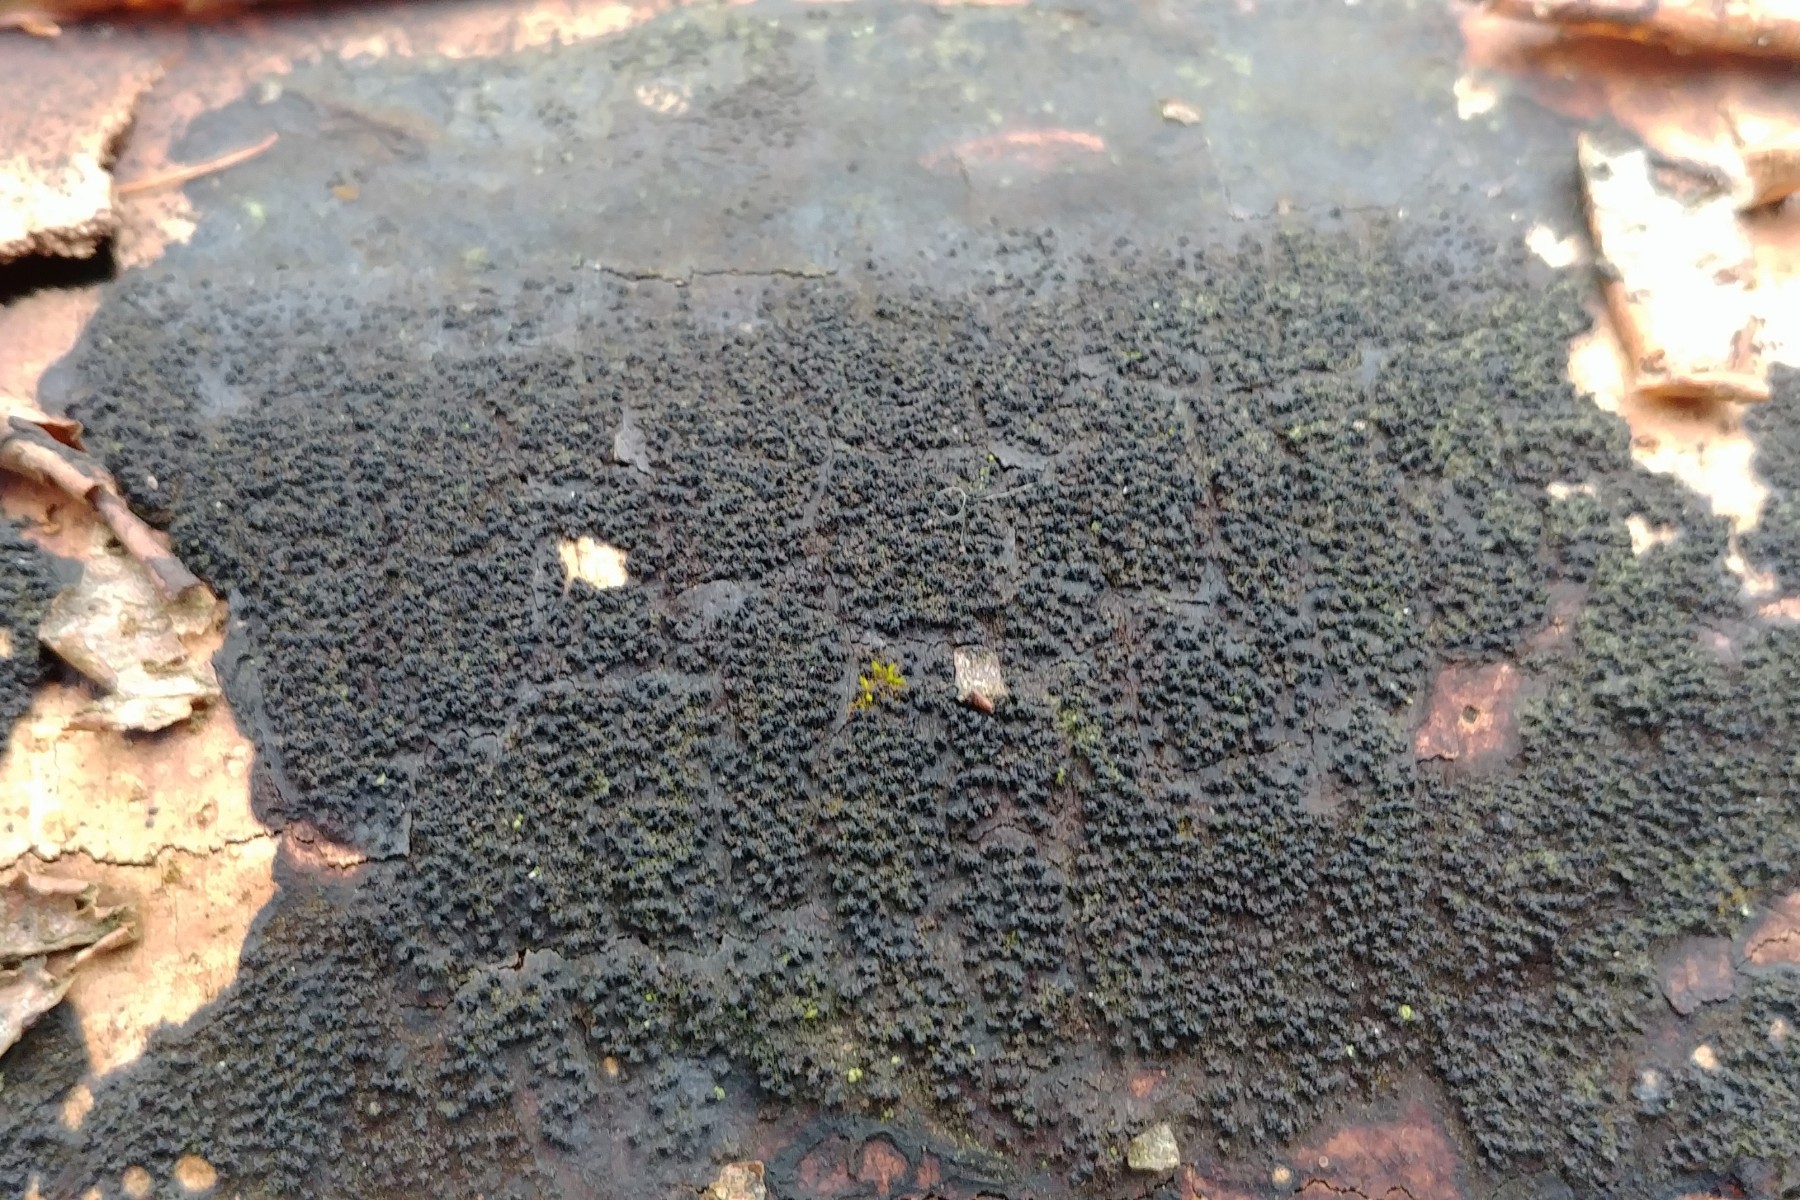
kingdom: Fungi
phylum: Ascomycota
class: Sordariomycetes
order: Xylariales
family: Diatrypaceae
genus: Eutypa
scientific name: Eutypa spinosa
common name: grov kulskorpe
